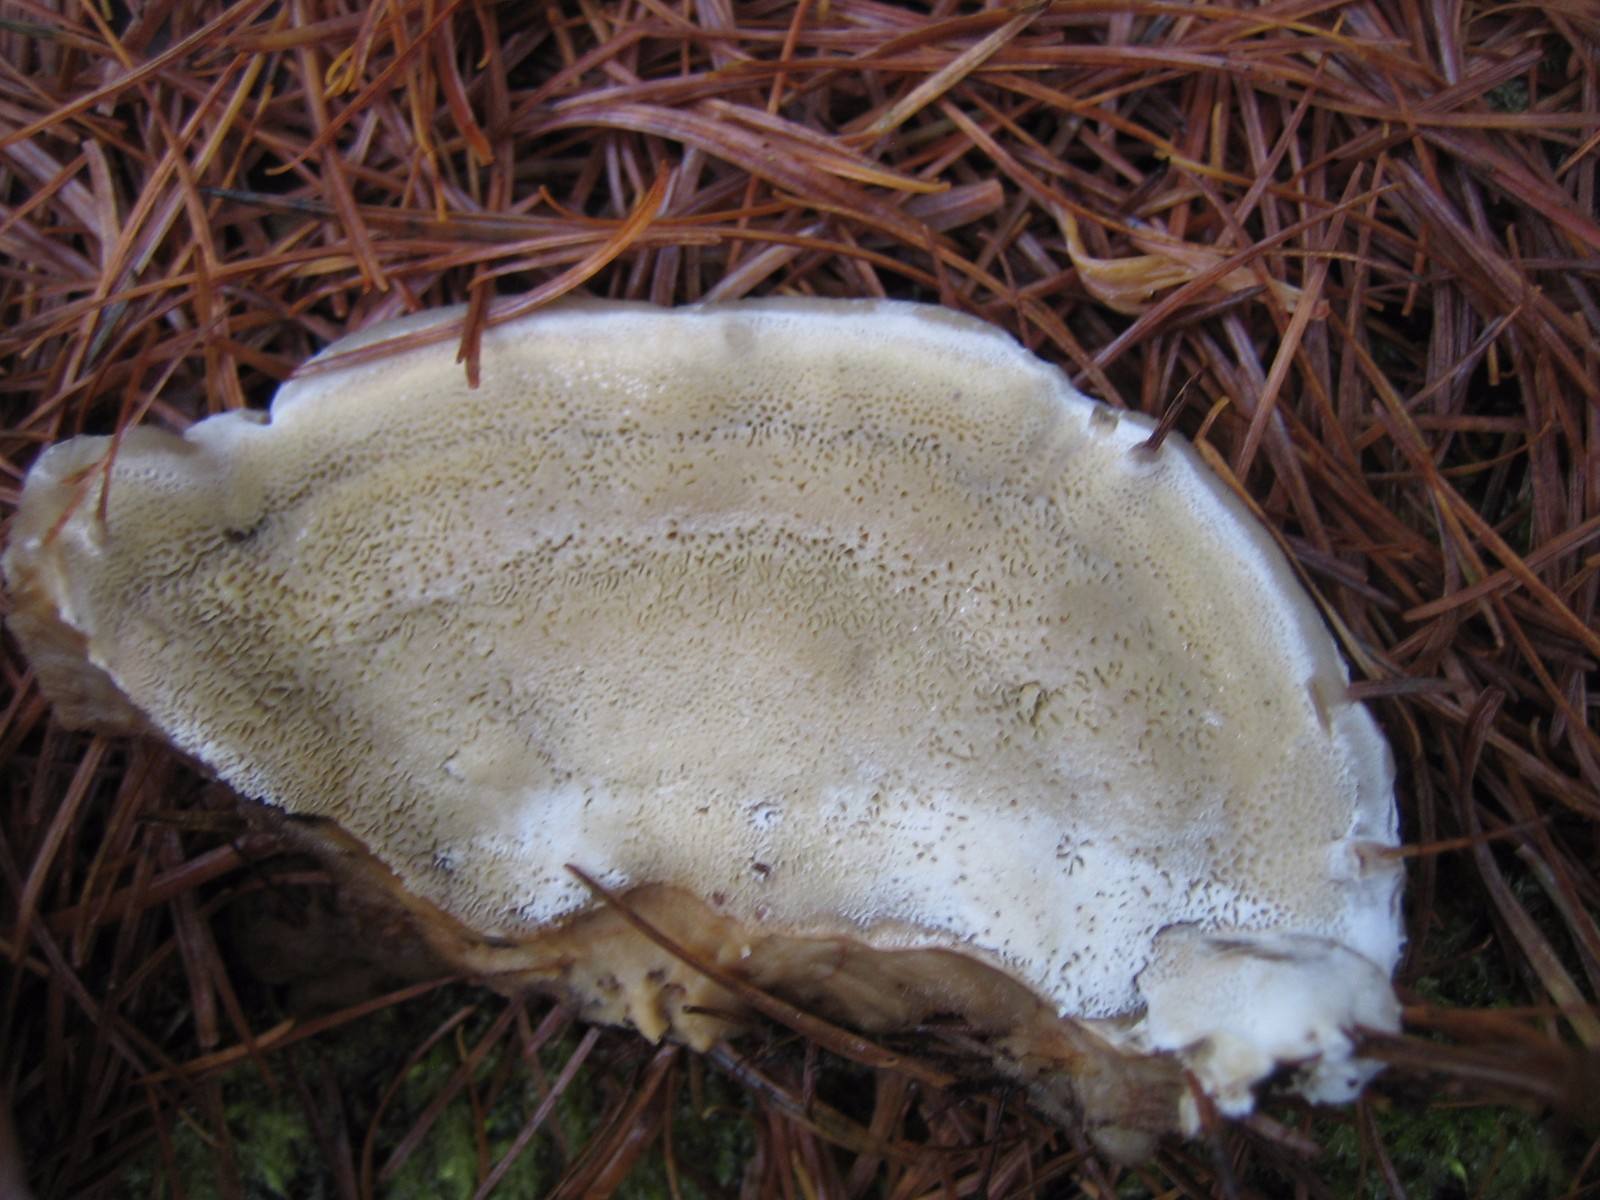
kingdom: Fungi
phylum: Basidiomycota
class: Agaricomycetes
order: Polyporales
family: Ischnodermataceae
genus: Ischnoderma
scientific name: Ischnoderma benzoinum
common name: gran-tjæreporesvamp
